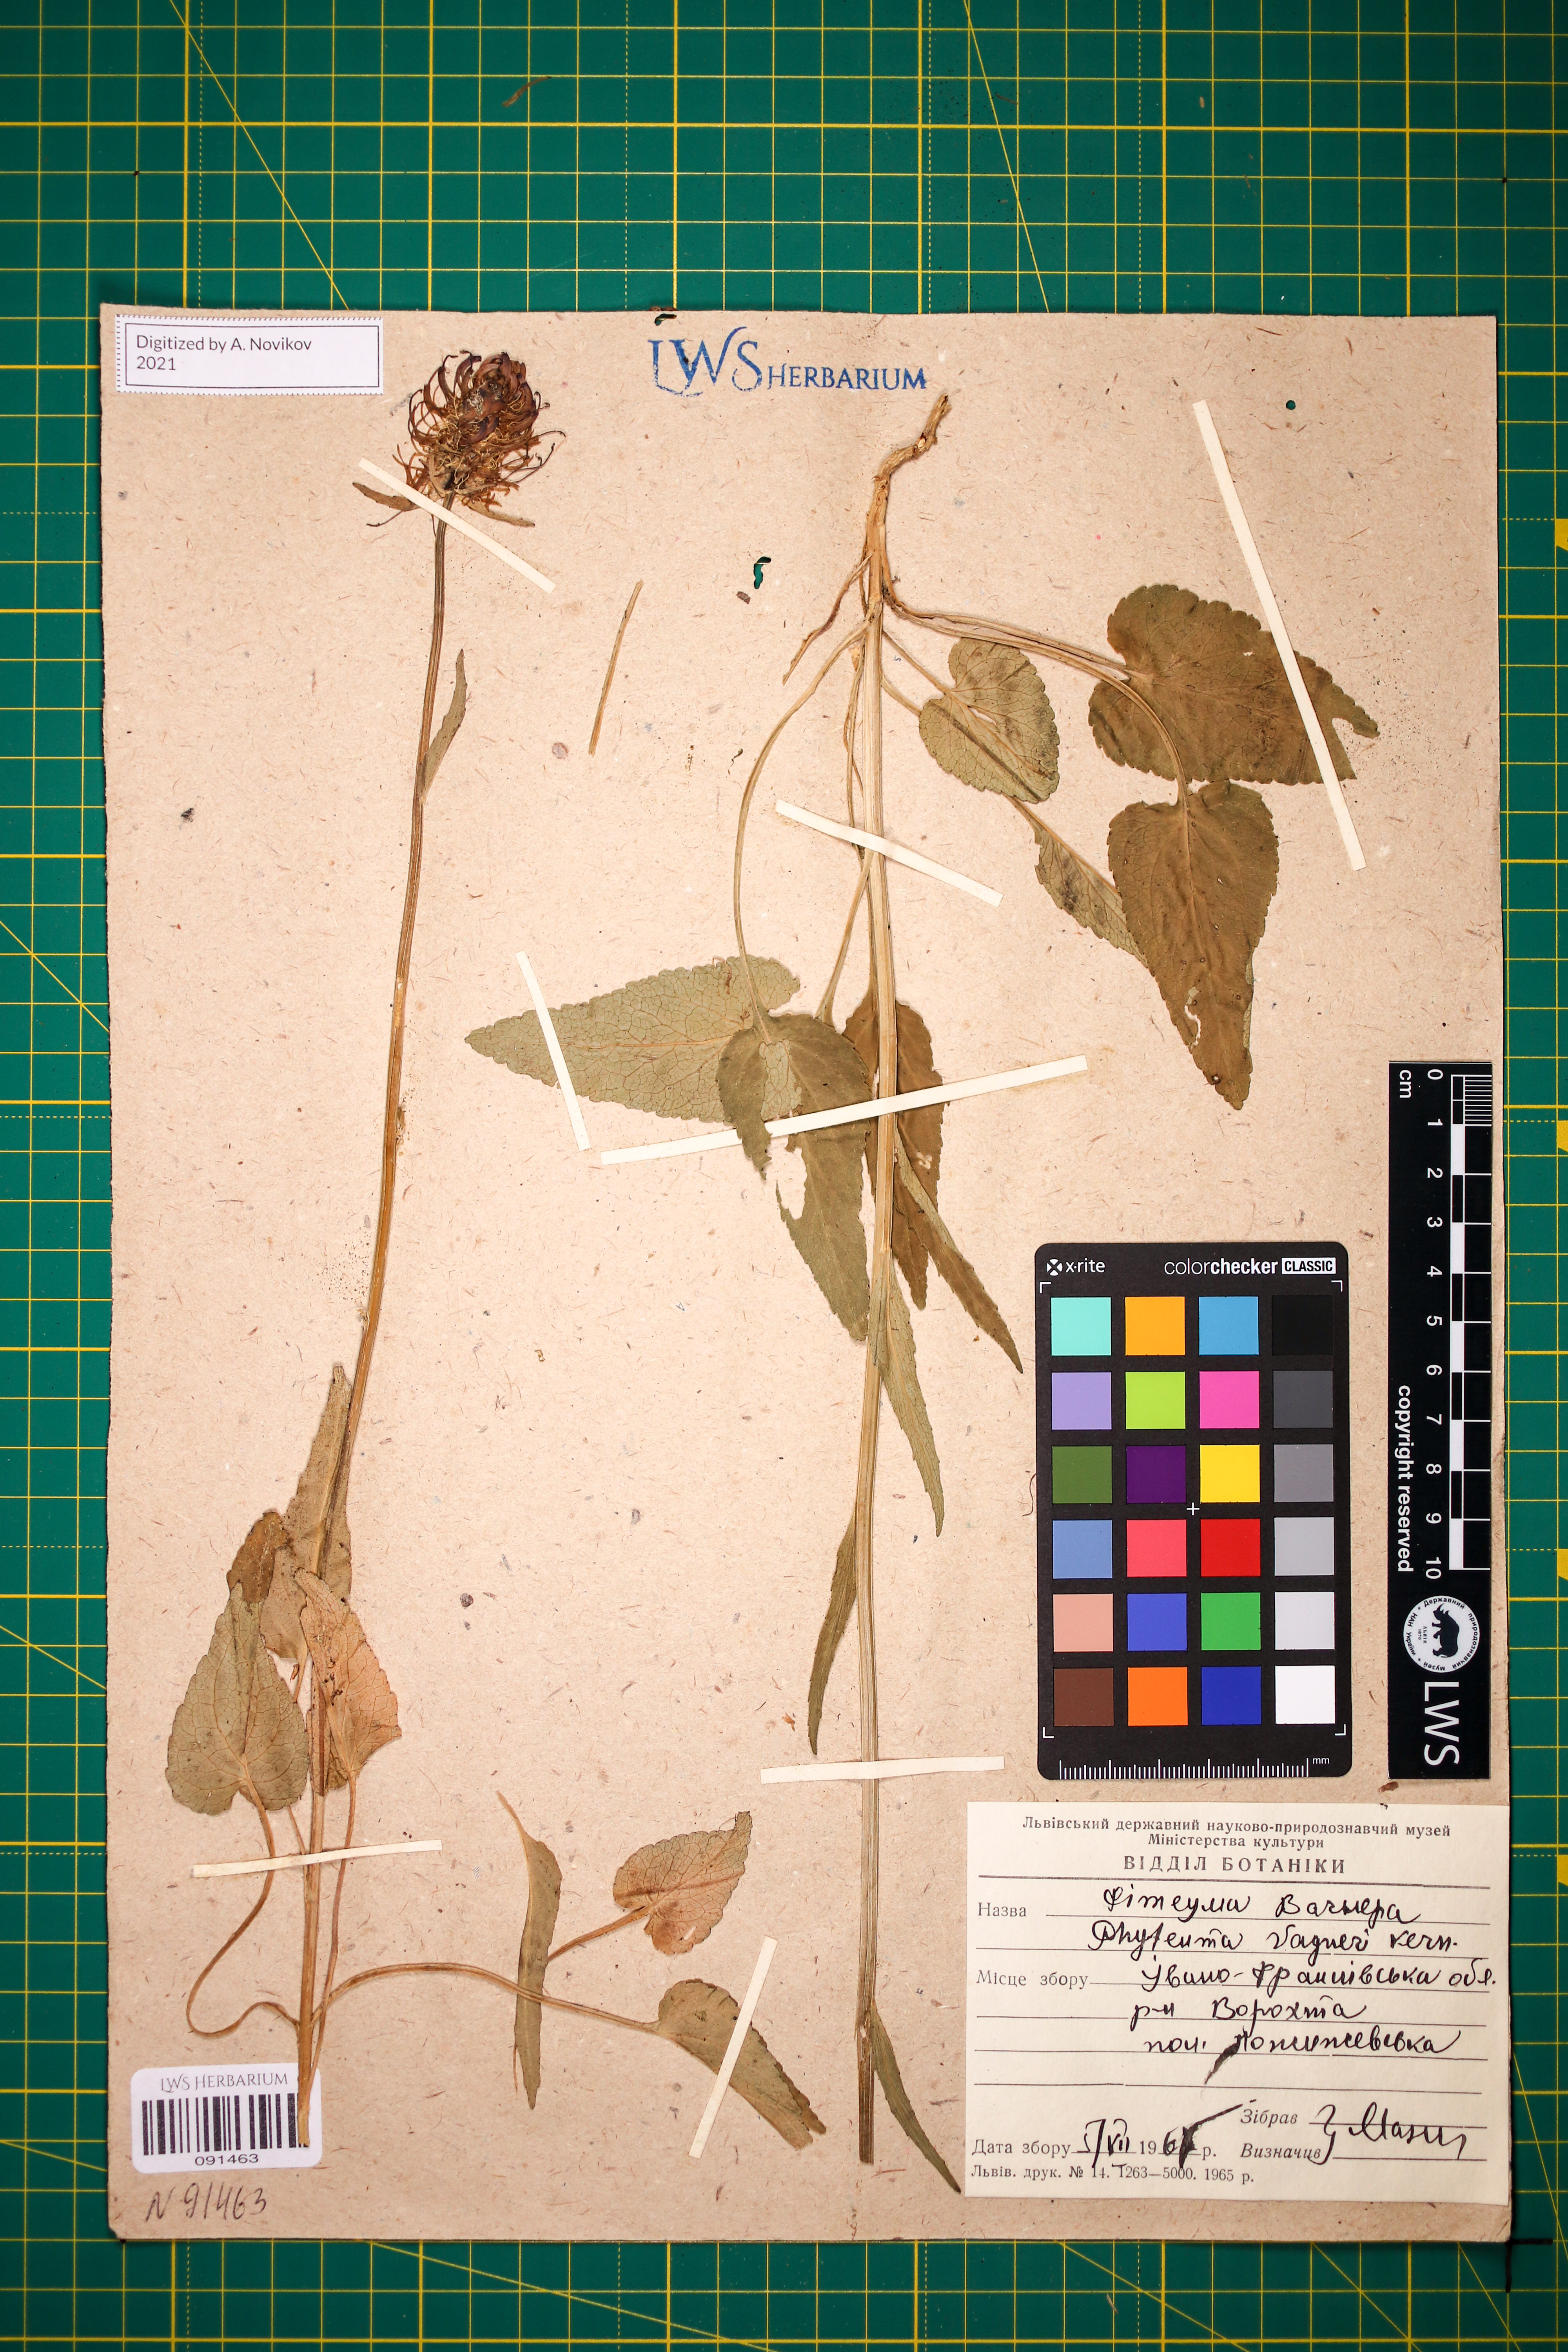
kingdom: Plantae
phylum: Tracheophyta
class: Magnoliopsida
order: Asterales
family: Campanulaceae
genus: Phyteuma
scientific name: Phyteuma vagneri
